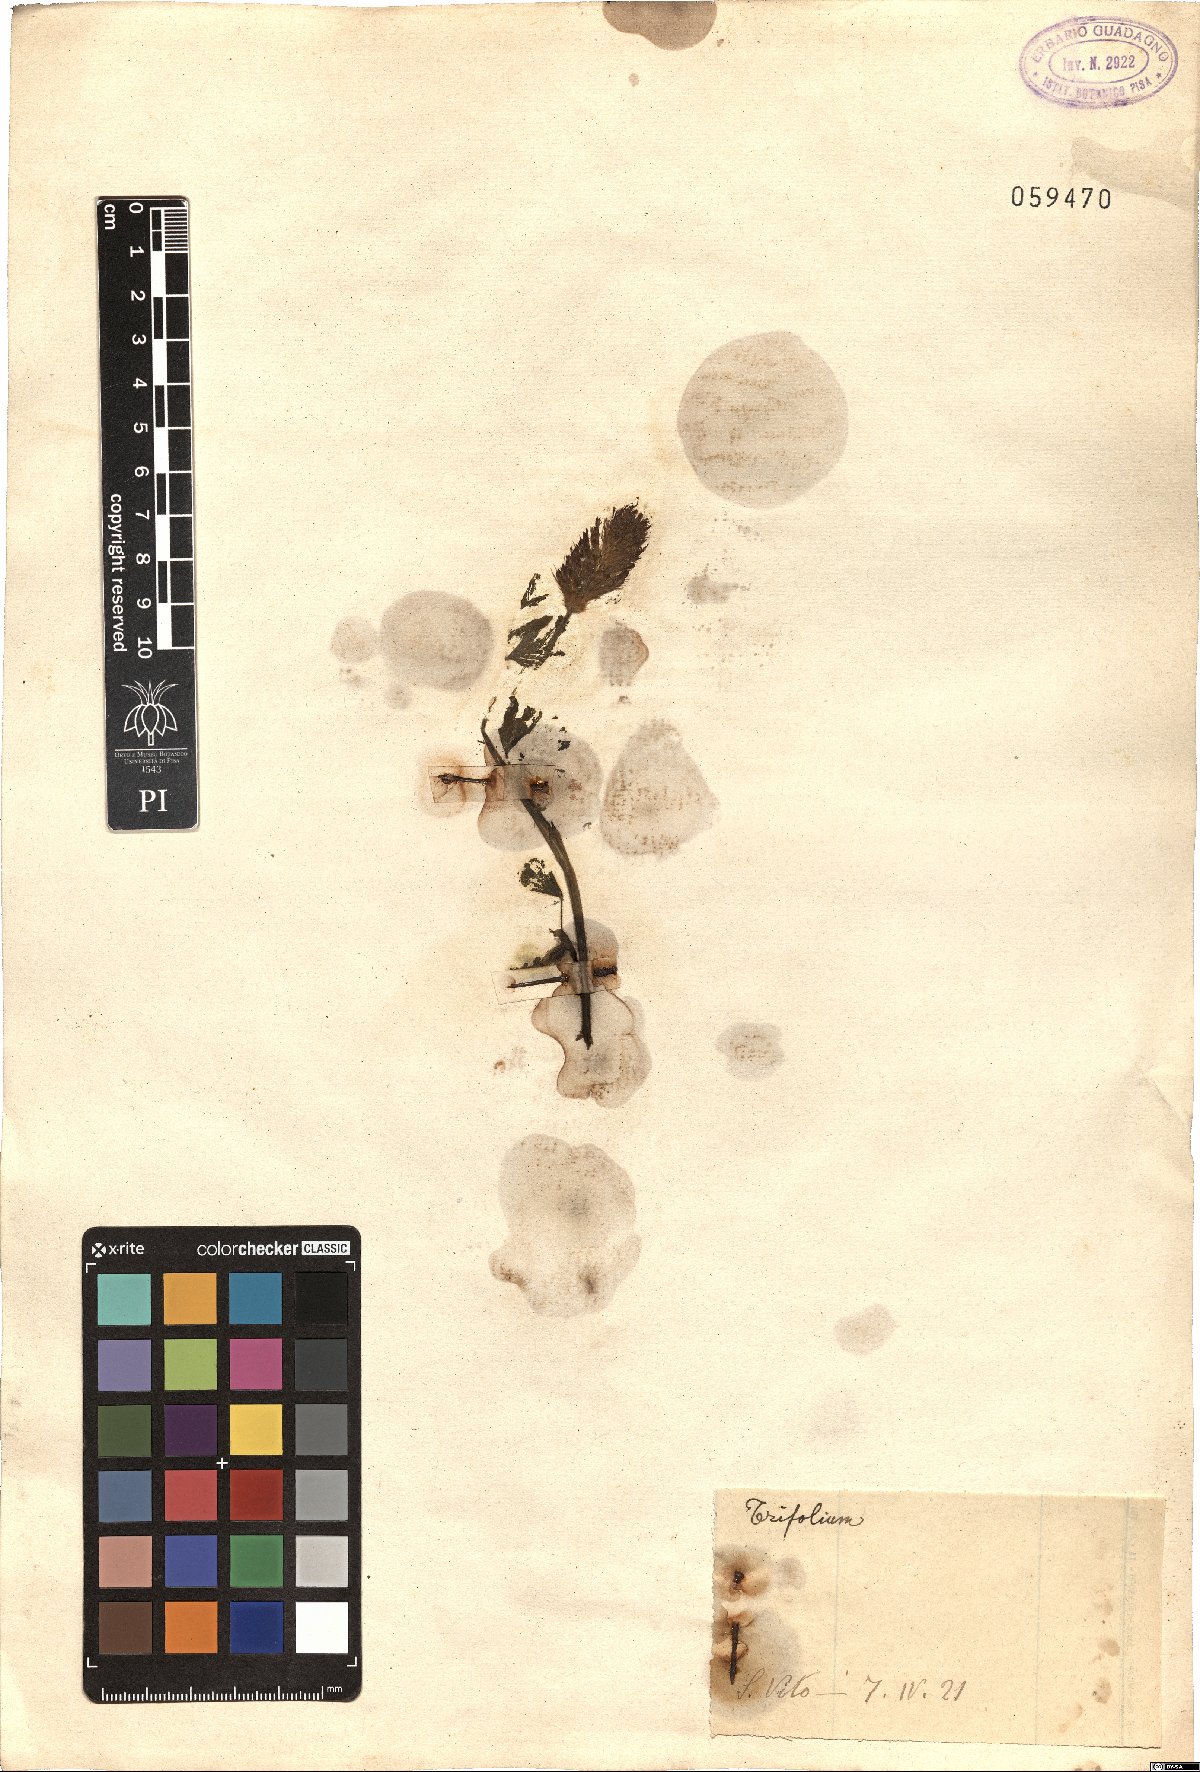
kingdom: Plantae
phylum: Tracheophyta
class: Magnoliopsida
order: Fabales
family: Fabaceae
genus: Trifolium
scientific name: Trifolium
